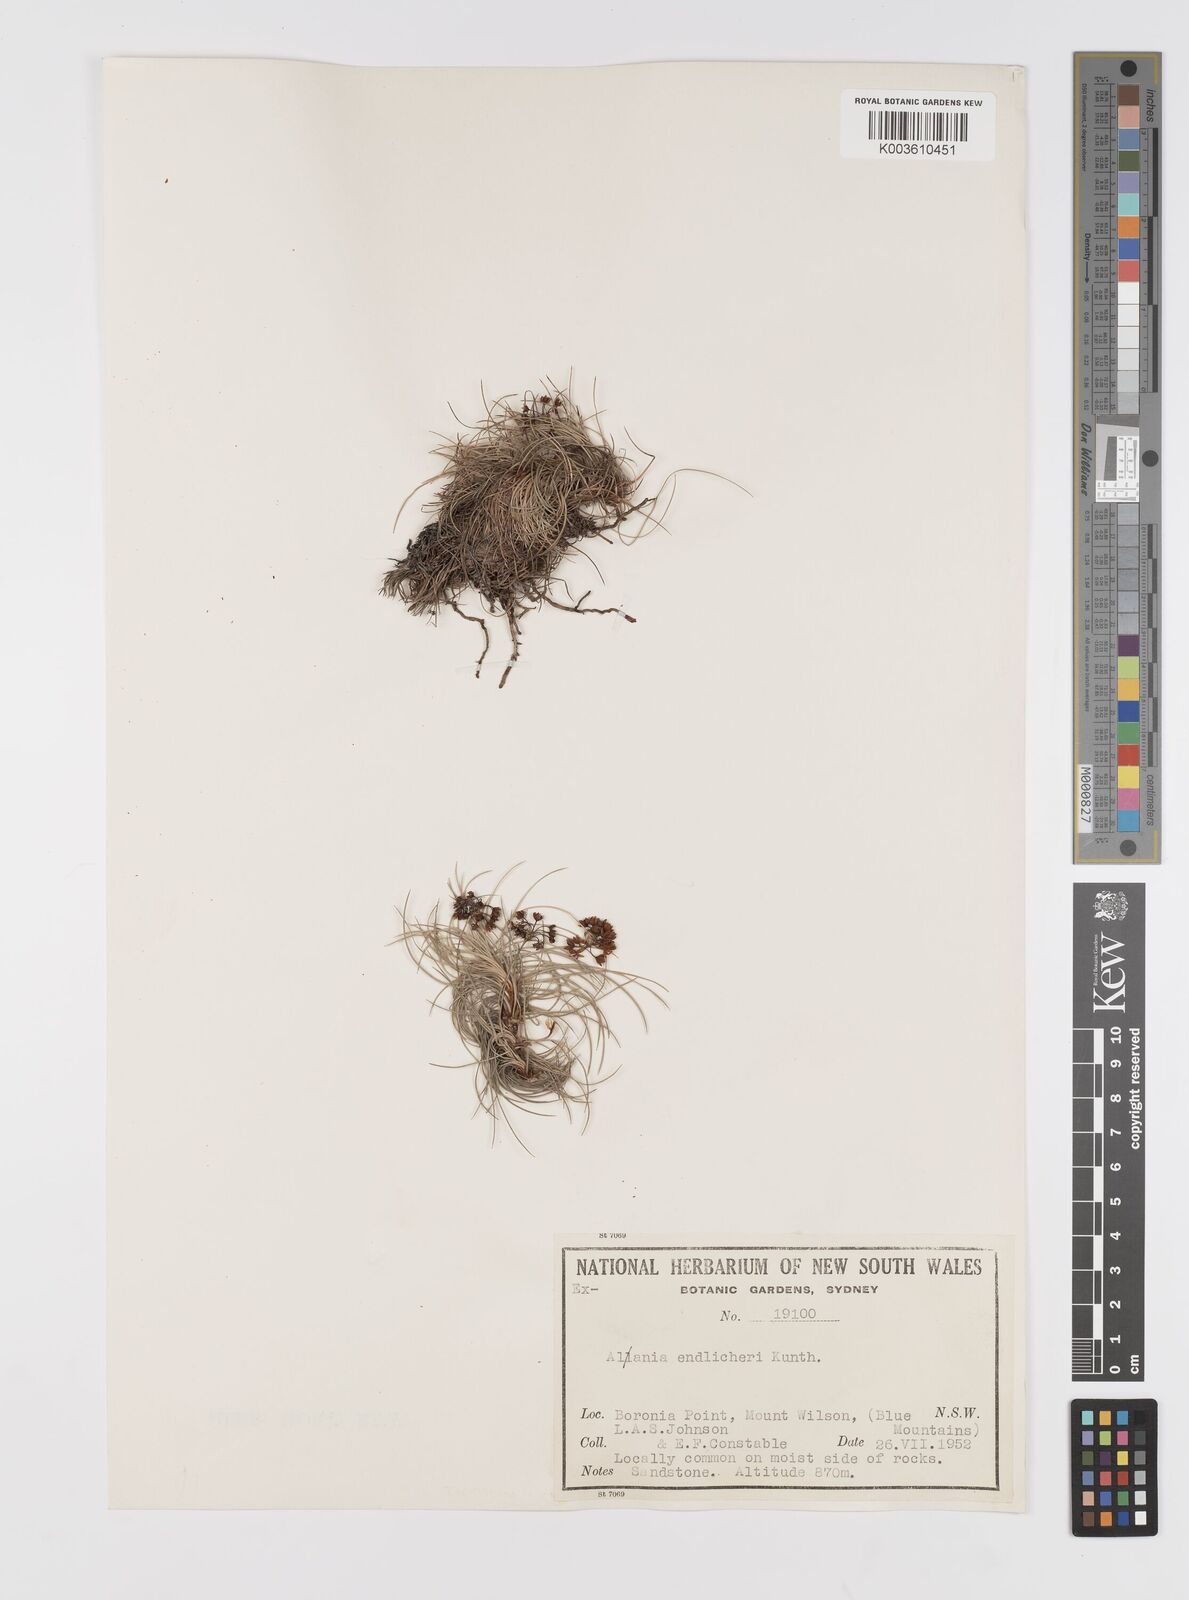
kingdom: Plantae
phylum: Tracheophyta
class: Liliopsida
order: Asparagales
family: Boryaceae
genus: Alania
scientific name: Alania cunninghamii
